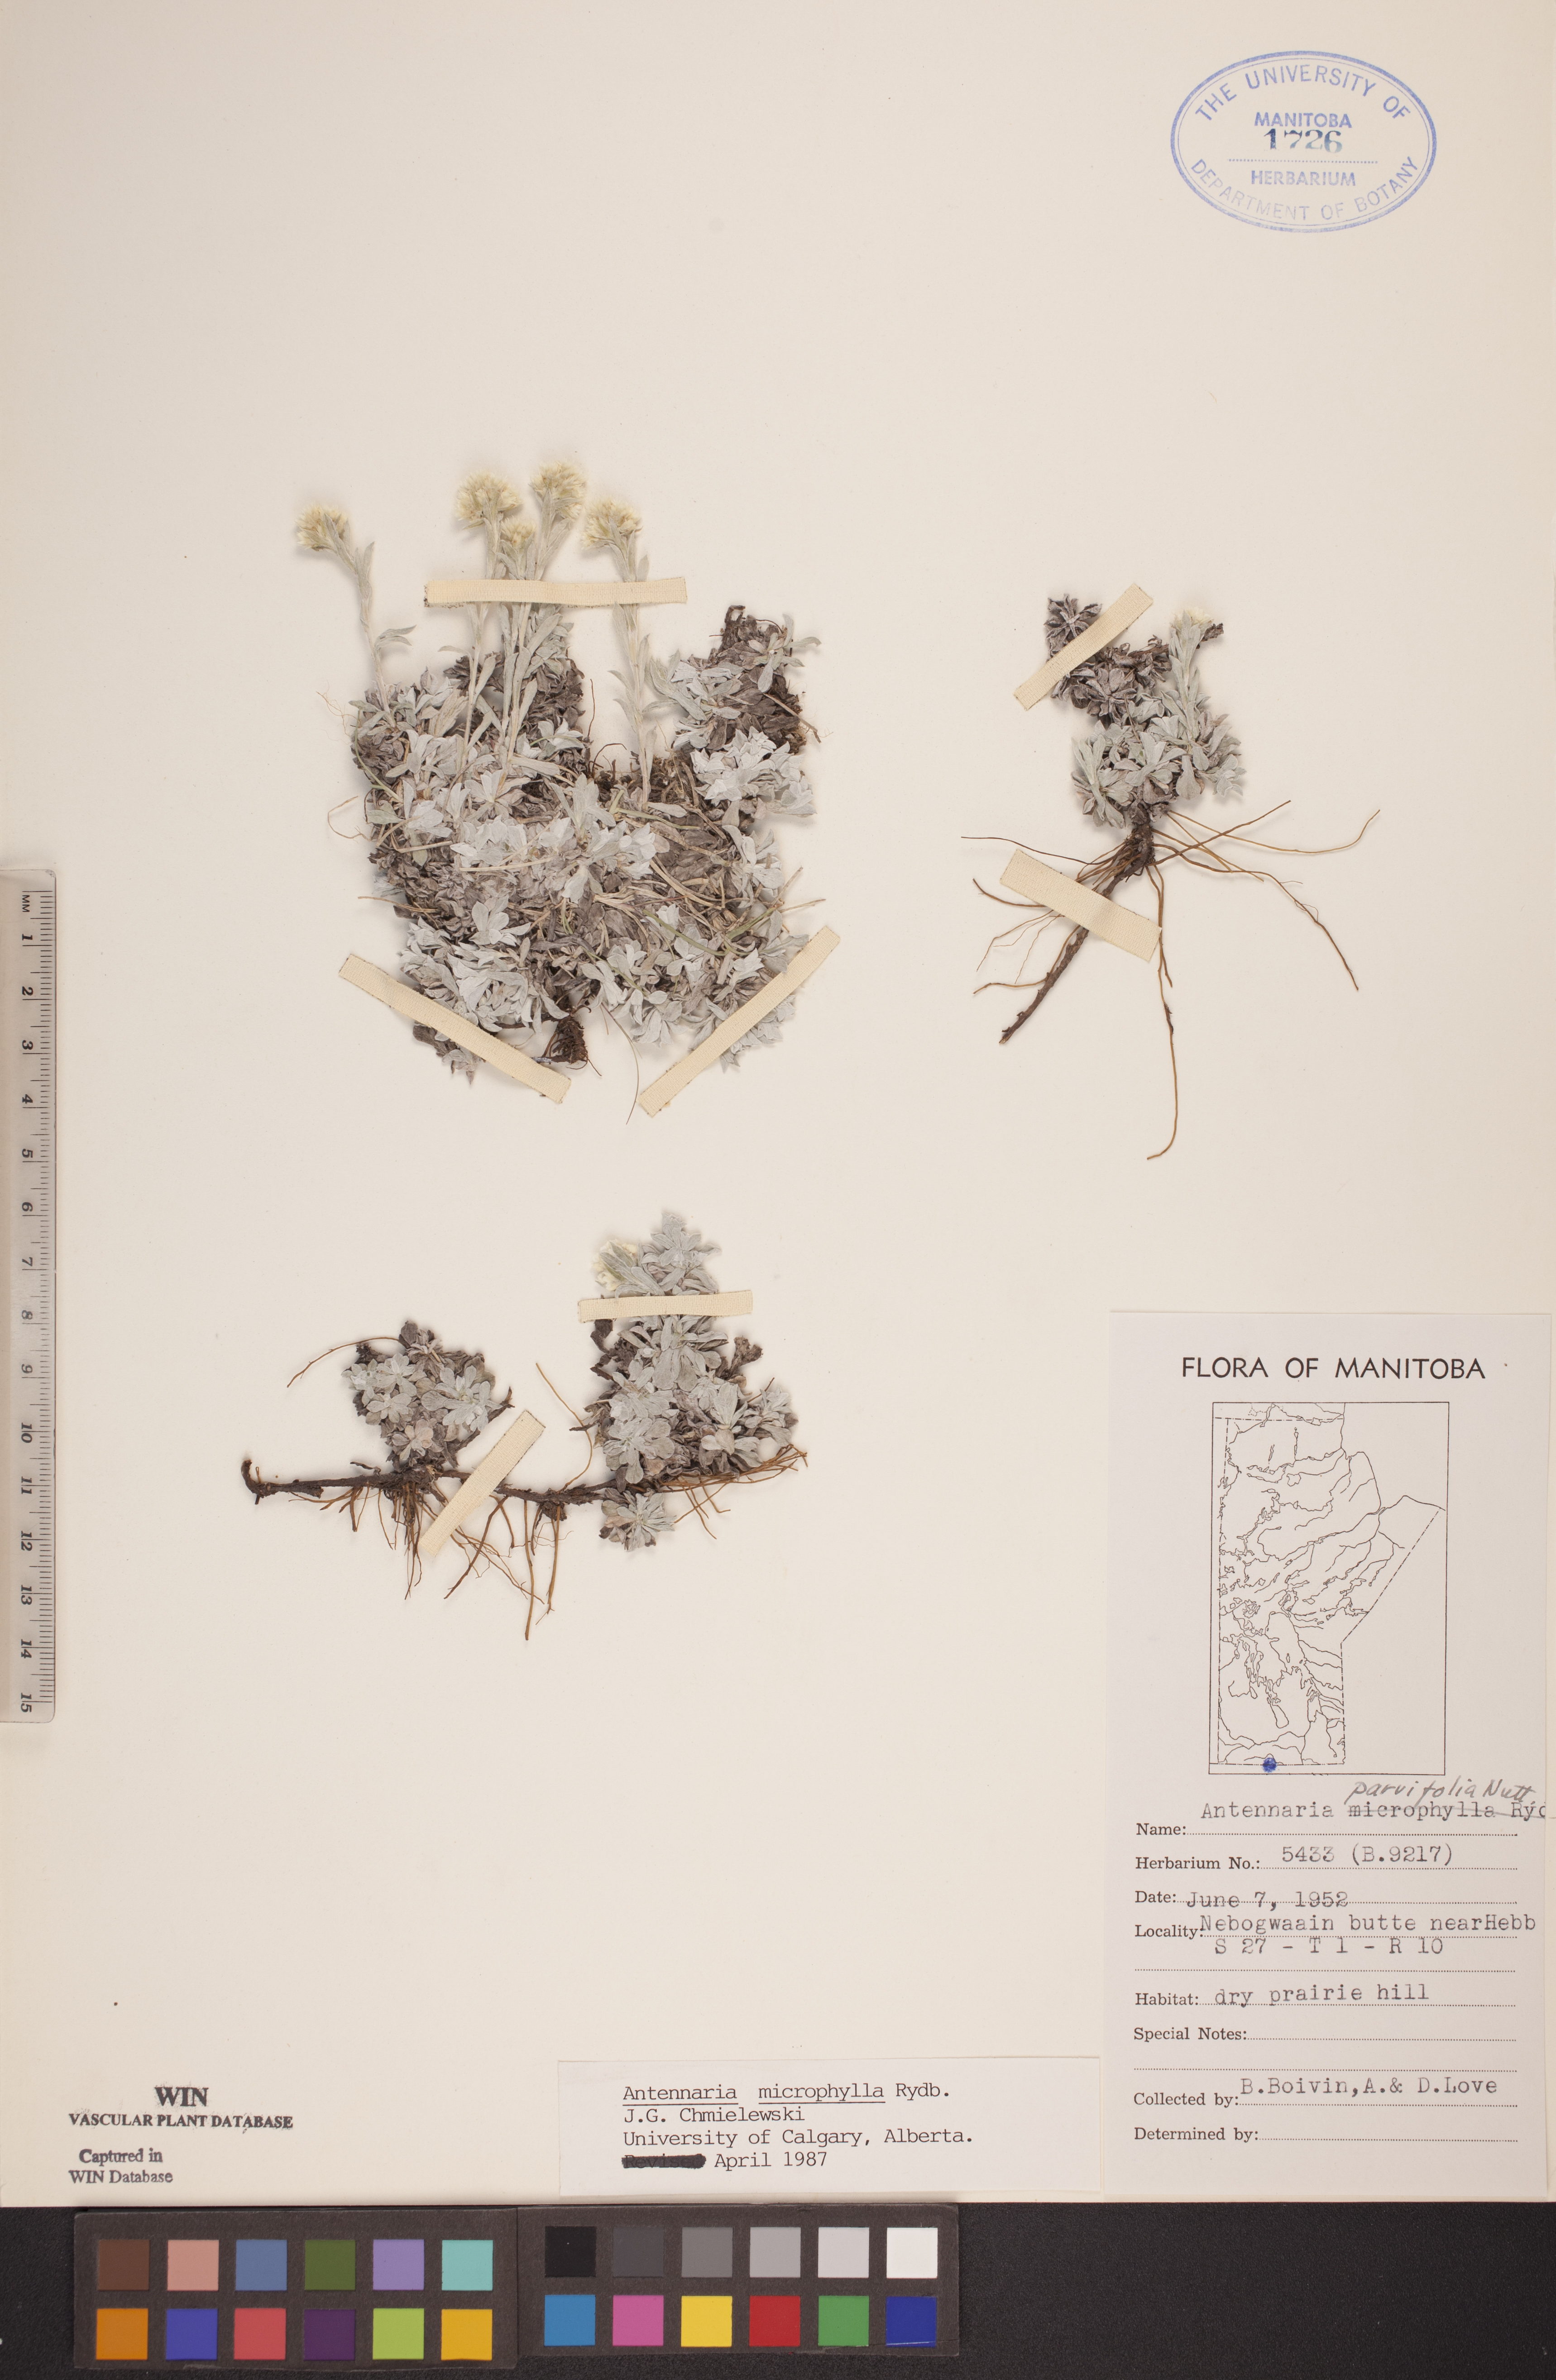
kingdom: Plantae
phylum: Tracheophyta
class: Magnoliopsida
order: Asterales
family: Asteraceae
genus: Antennaria
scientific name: Antennaria microphylla
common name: Littleleaf pussytoes
